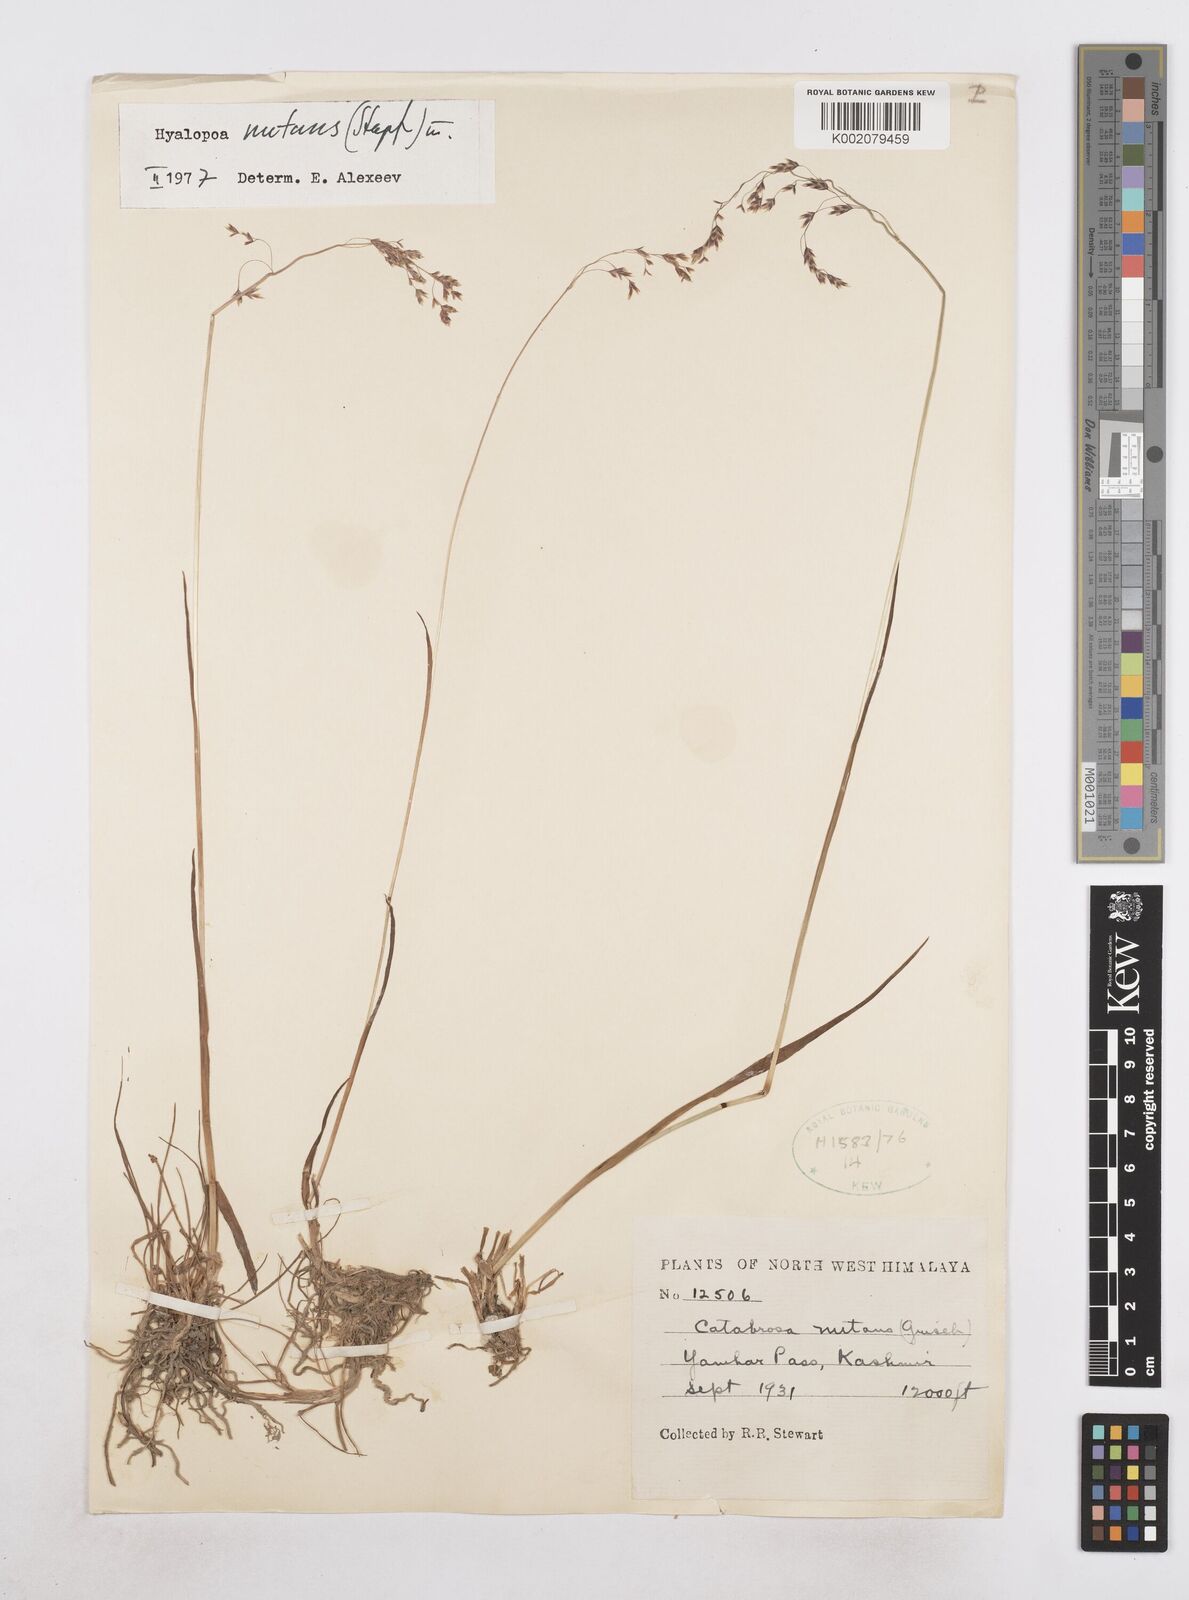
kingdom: Plantae
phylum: Tracheophyta
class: Liliopsida
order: Poales
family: Poaceae
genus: Hyalopoa
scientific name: Hyalopoa nutans
